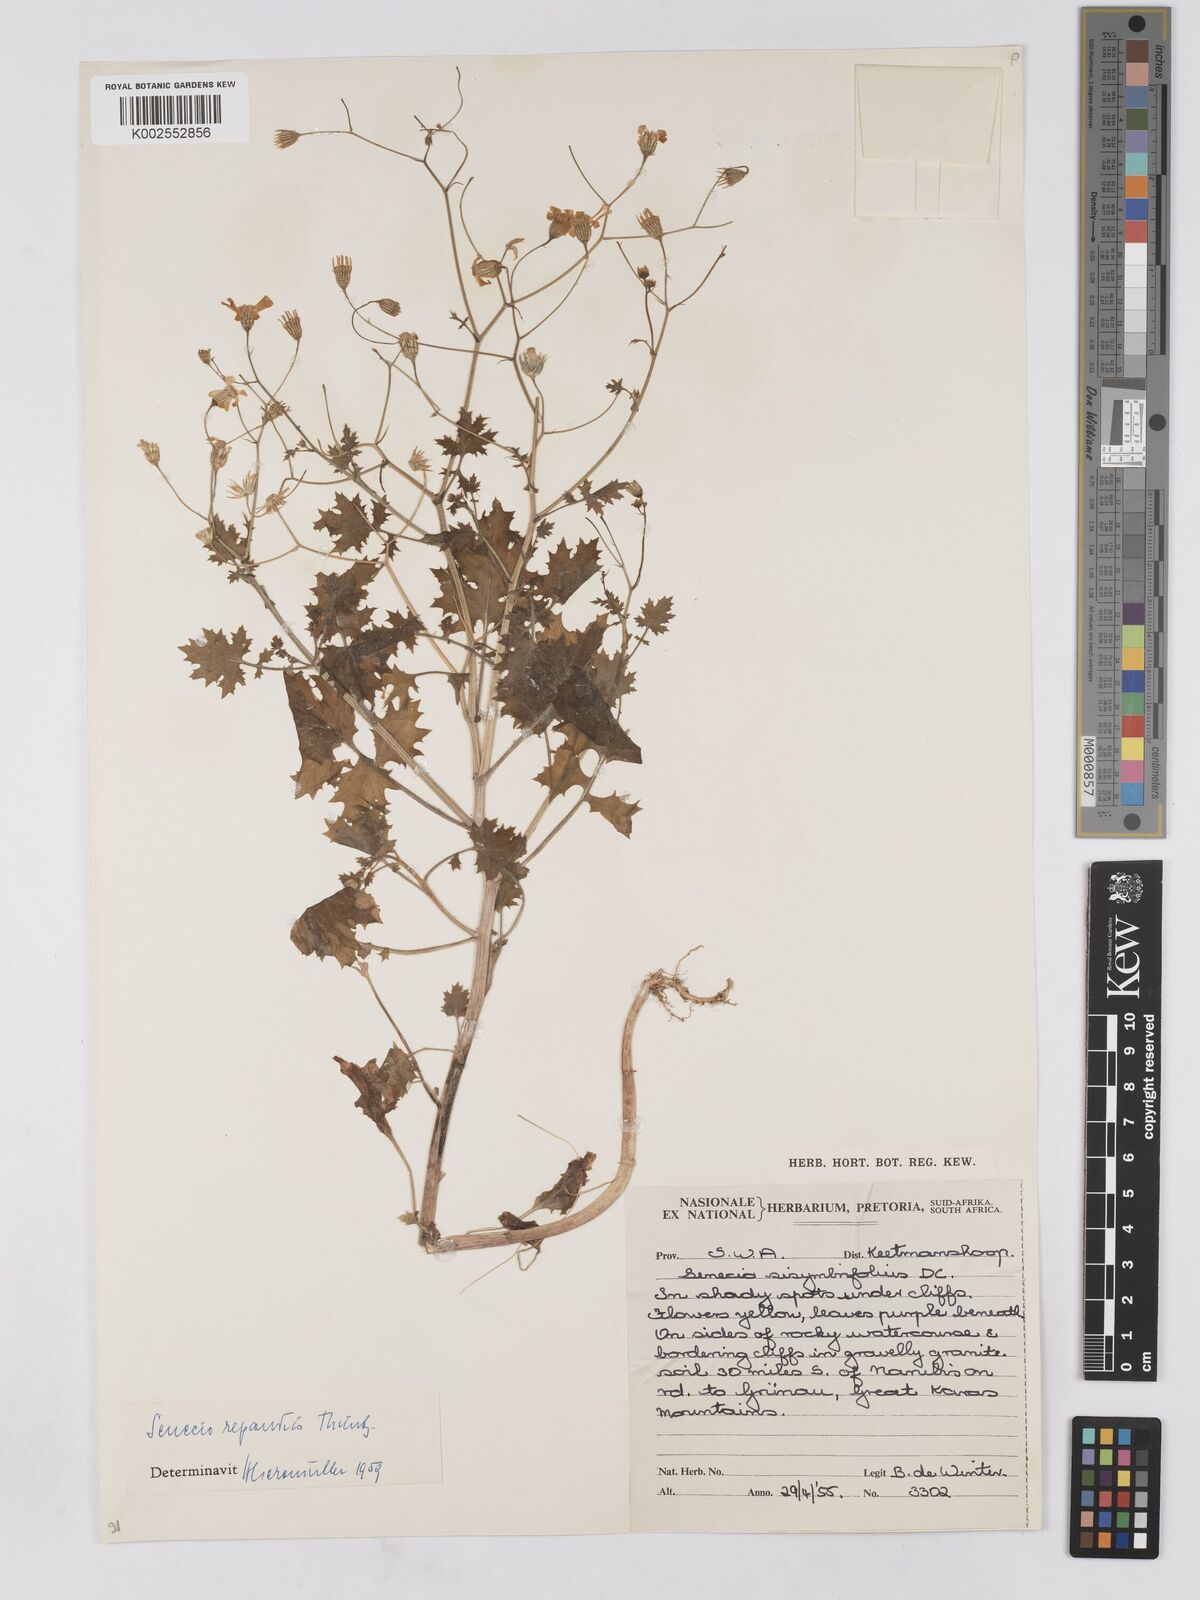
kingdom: Plantae
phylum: Tracheophyta
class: Magnoliopsida
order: Asterales
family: Asteraceae
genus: Senecio
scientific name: Senecio repandus
